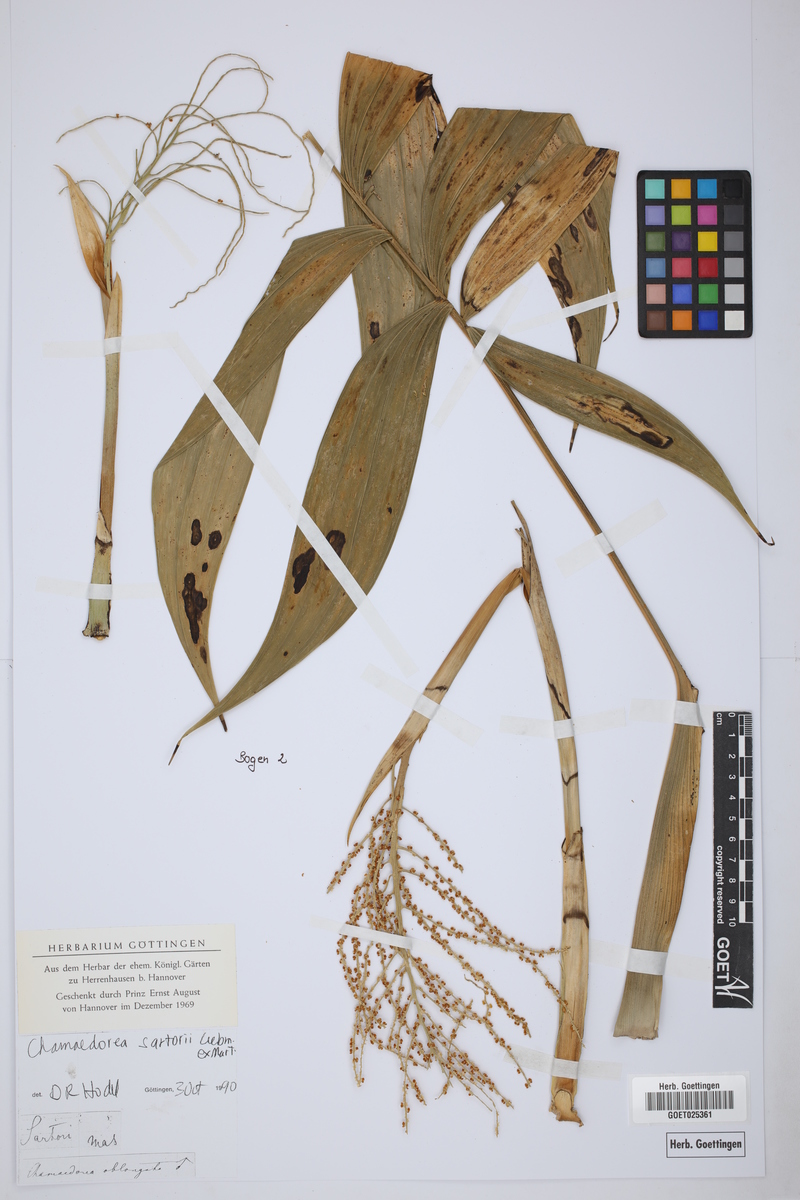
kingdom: Plantae
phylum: Tracheophyta
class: Liliopsida
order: Arecales
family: Arecaceae
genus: Chamaedorea
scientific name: Chamaedorea sartorii
